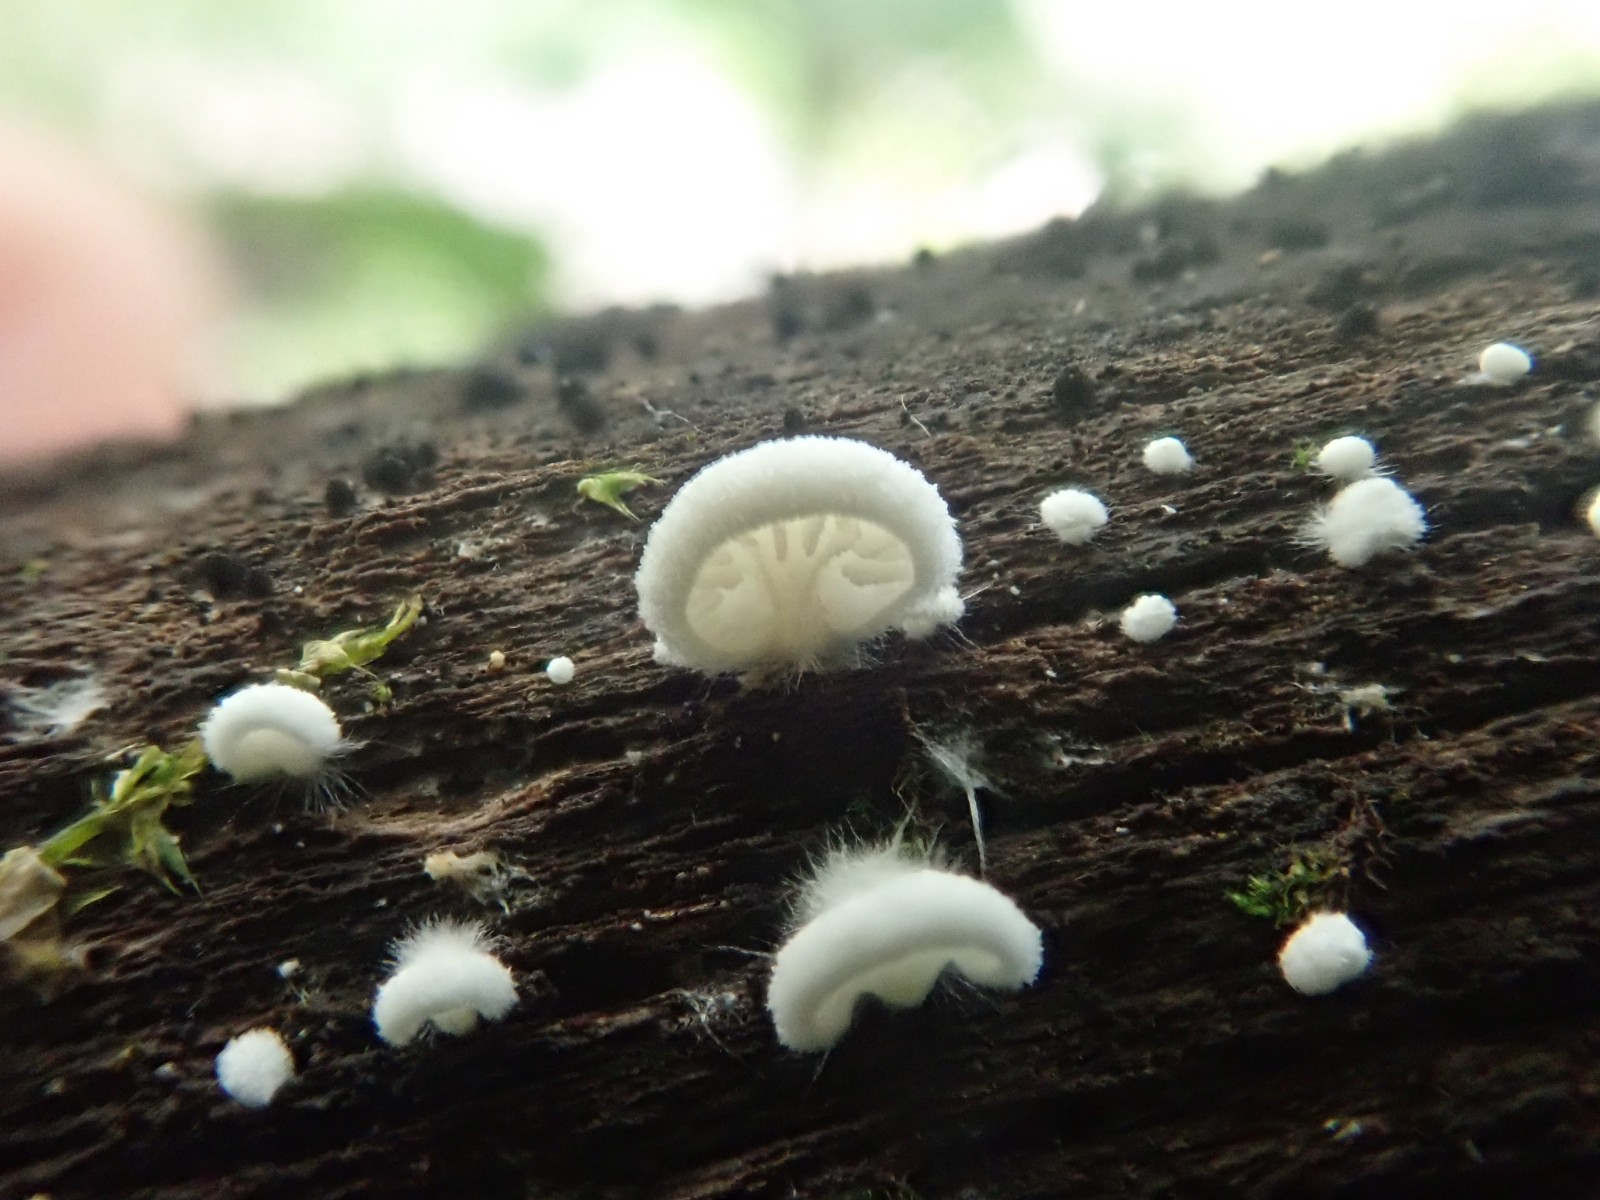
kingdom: Fungi
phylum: Basidiomycota
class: Agaricomycetes
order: Agaricales
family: Entolomataceae
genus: Clitopilus
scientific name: Clitopilus hobsonii
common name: Miller's oysterling
